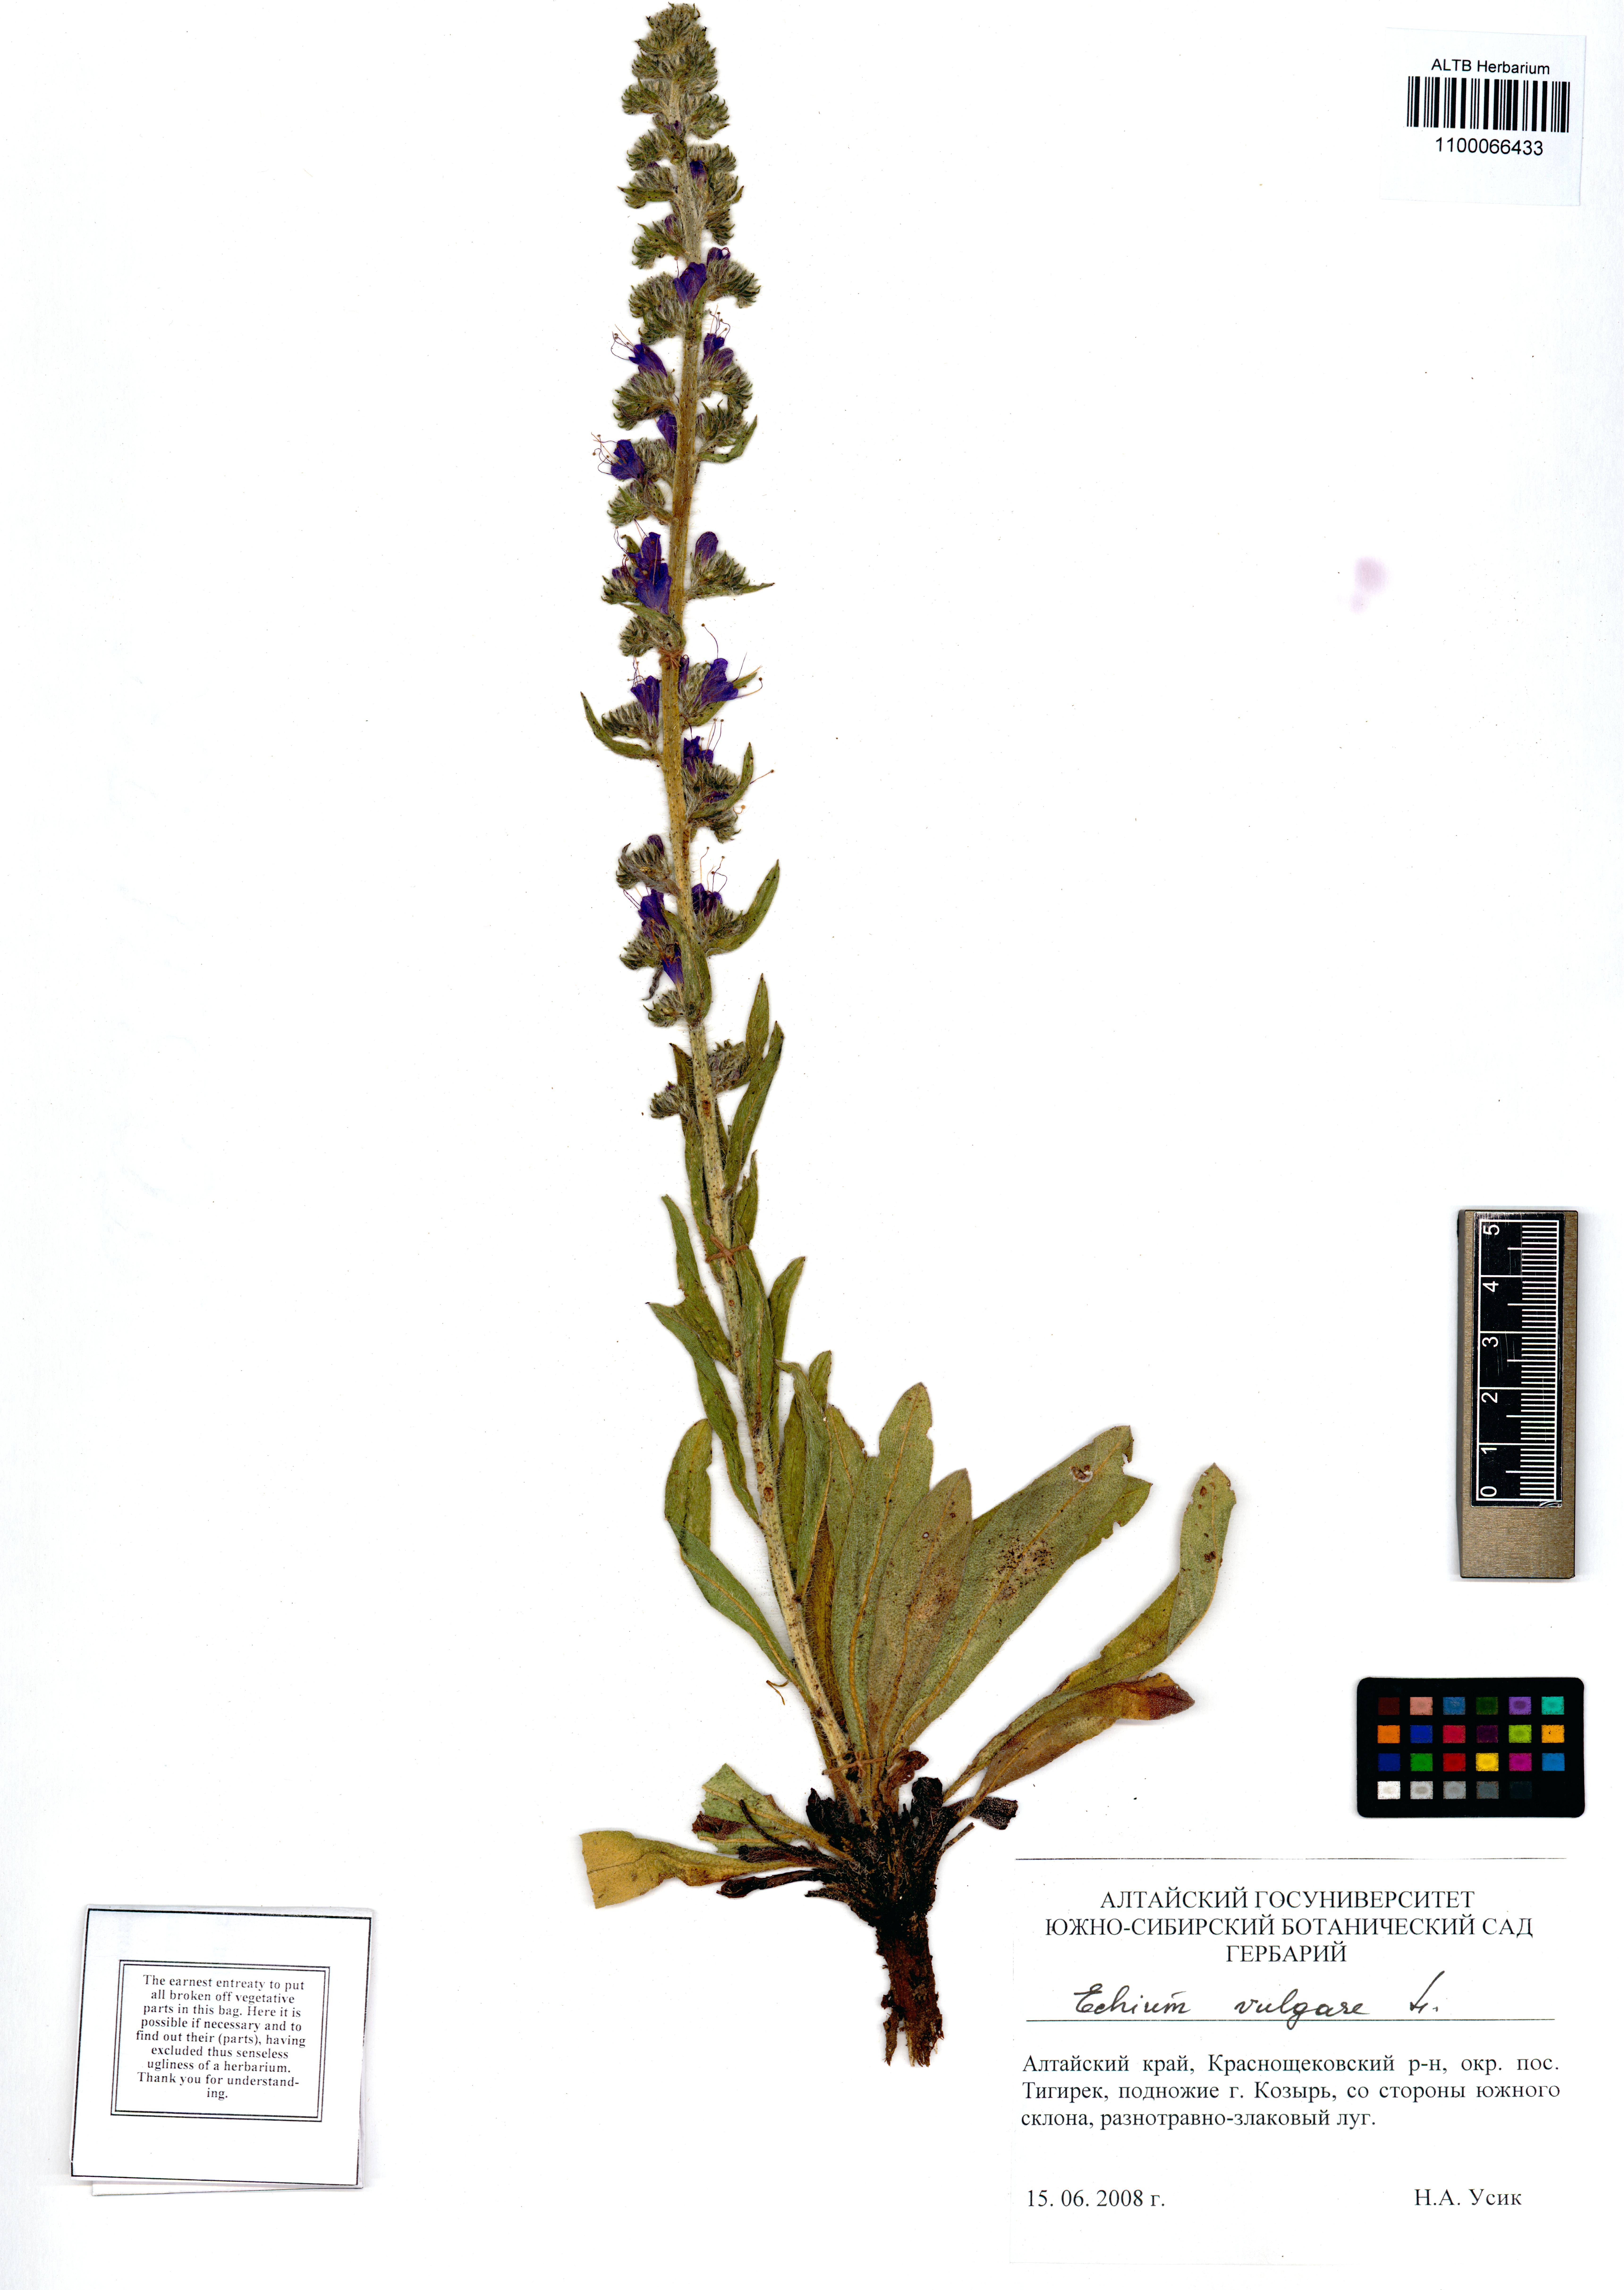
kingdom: Plantae
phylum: Tracheophyta
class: Magnoliopsida
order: Boraginales
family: Boraginaceae
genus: Echium
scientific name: Echium vulgare
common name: Common viper's bugloss
